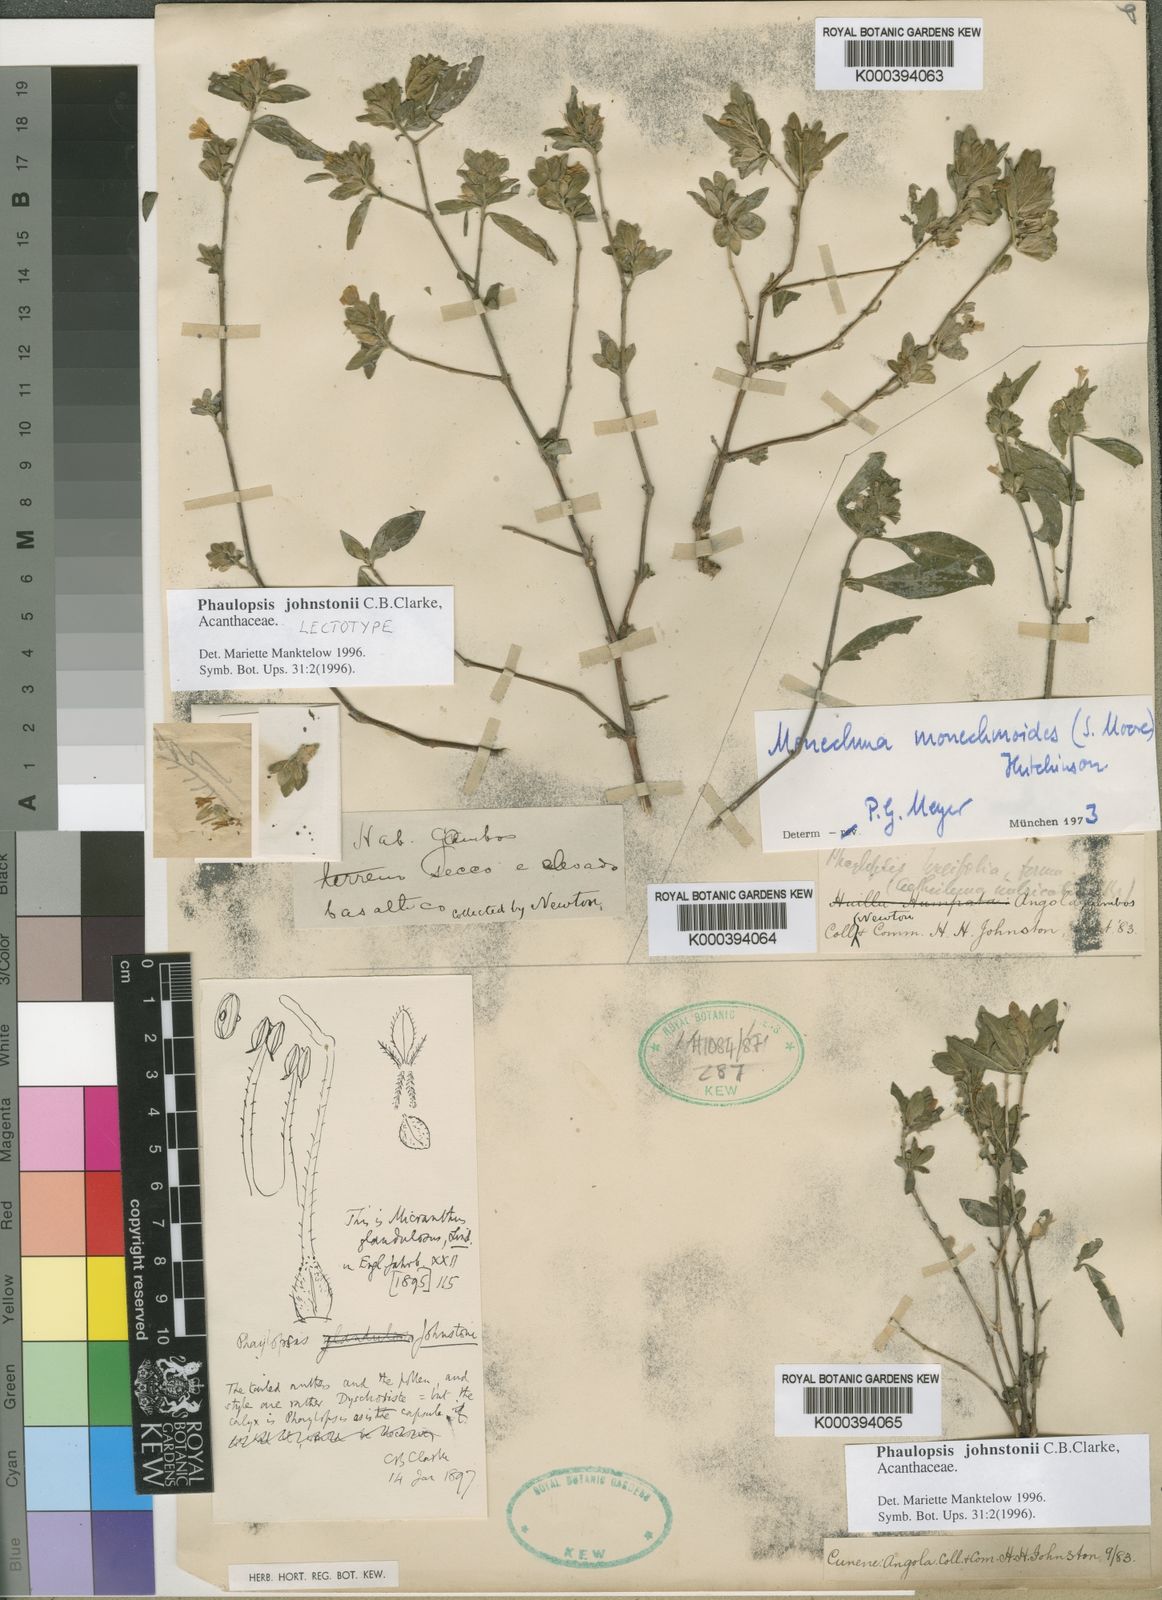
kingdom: Plantae
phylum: Tracheophyta
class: Magnoliopsida
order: Lamiales
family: Acanthaceae
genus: Phaulopsis
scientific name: Phaulopsis johnstonii
